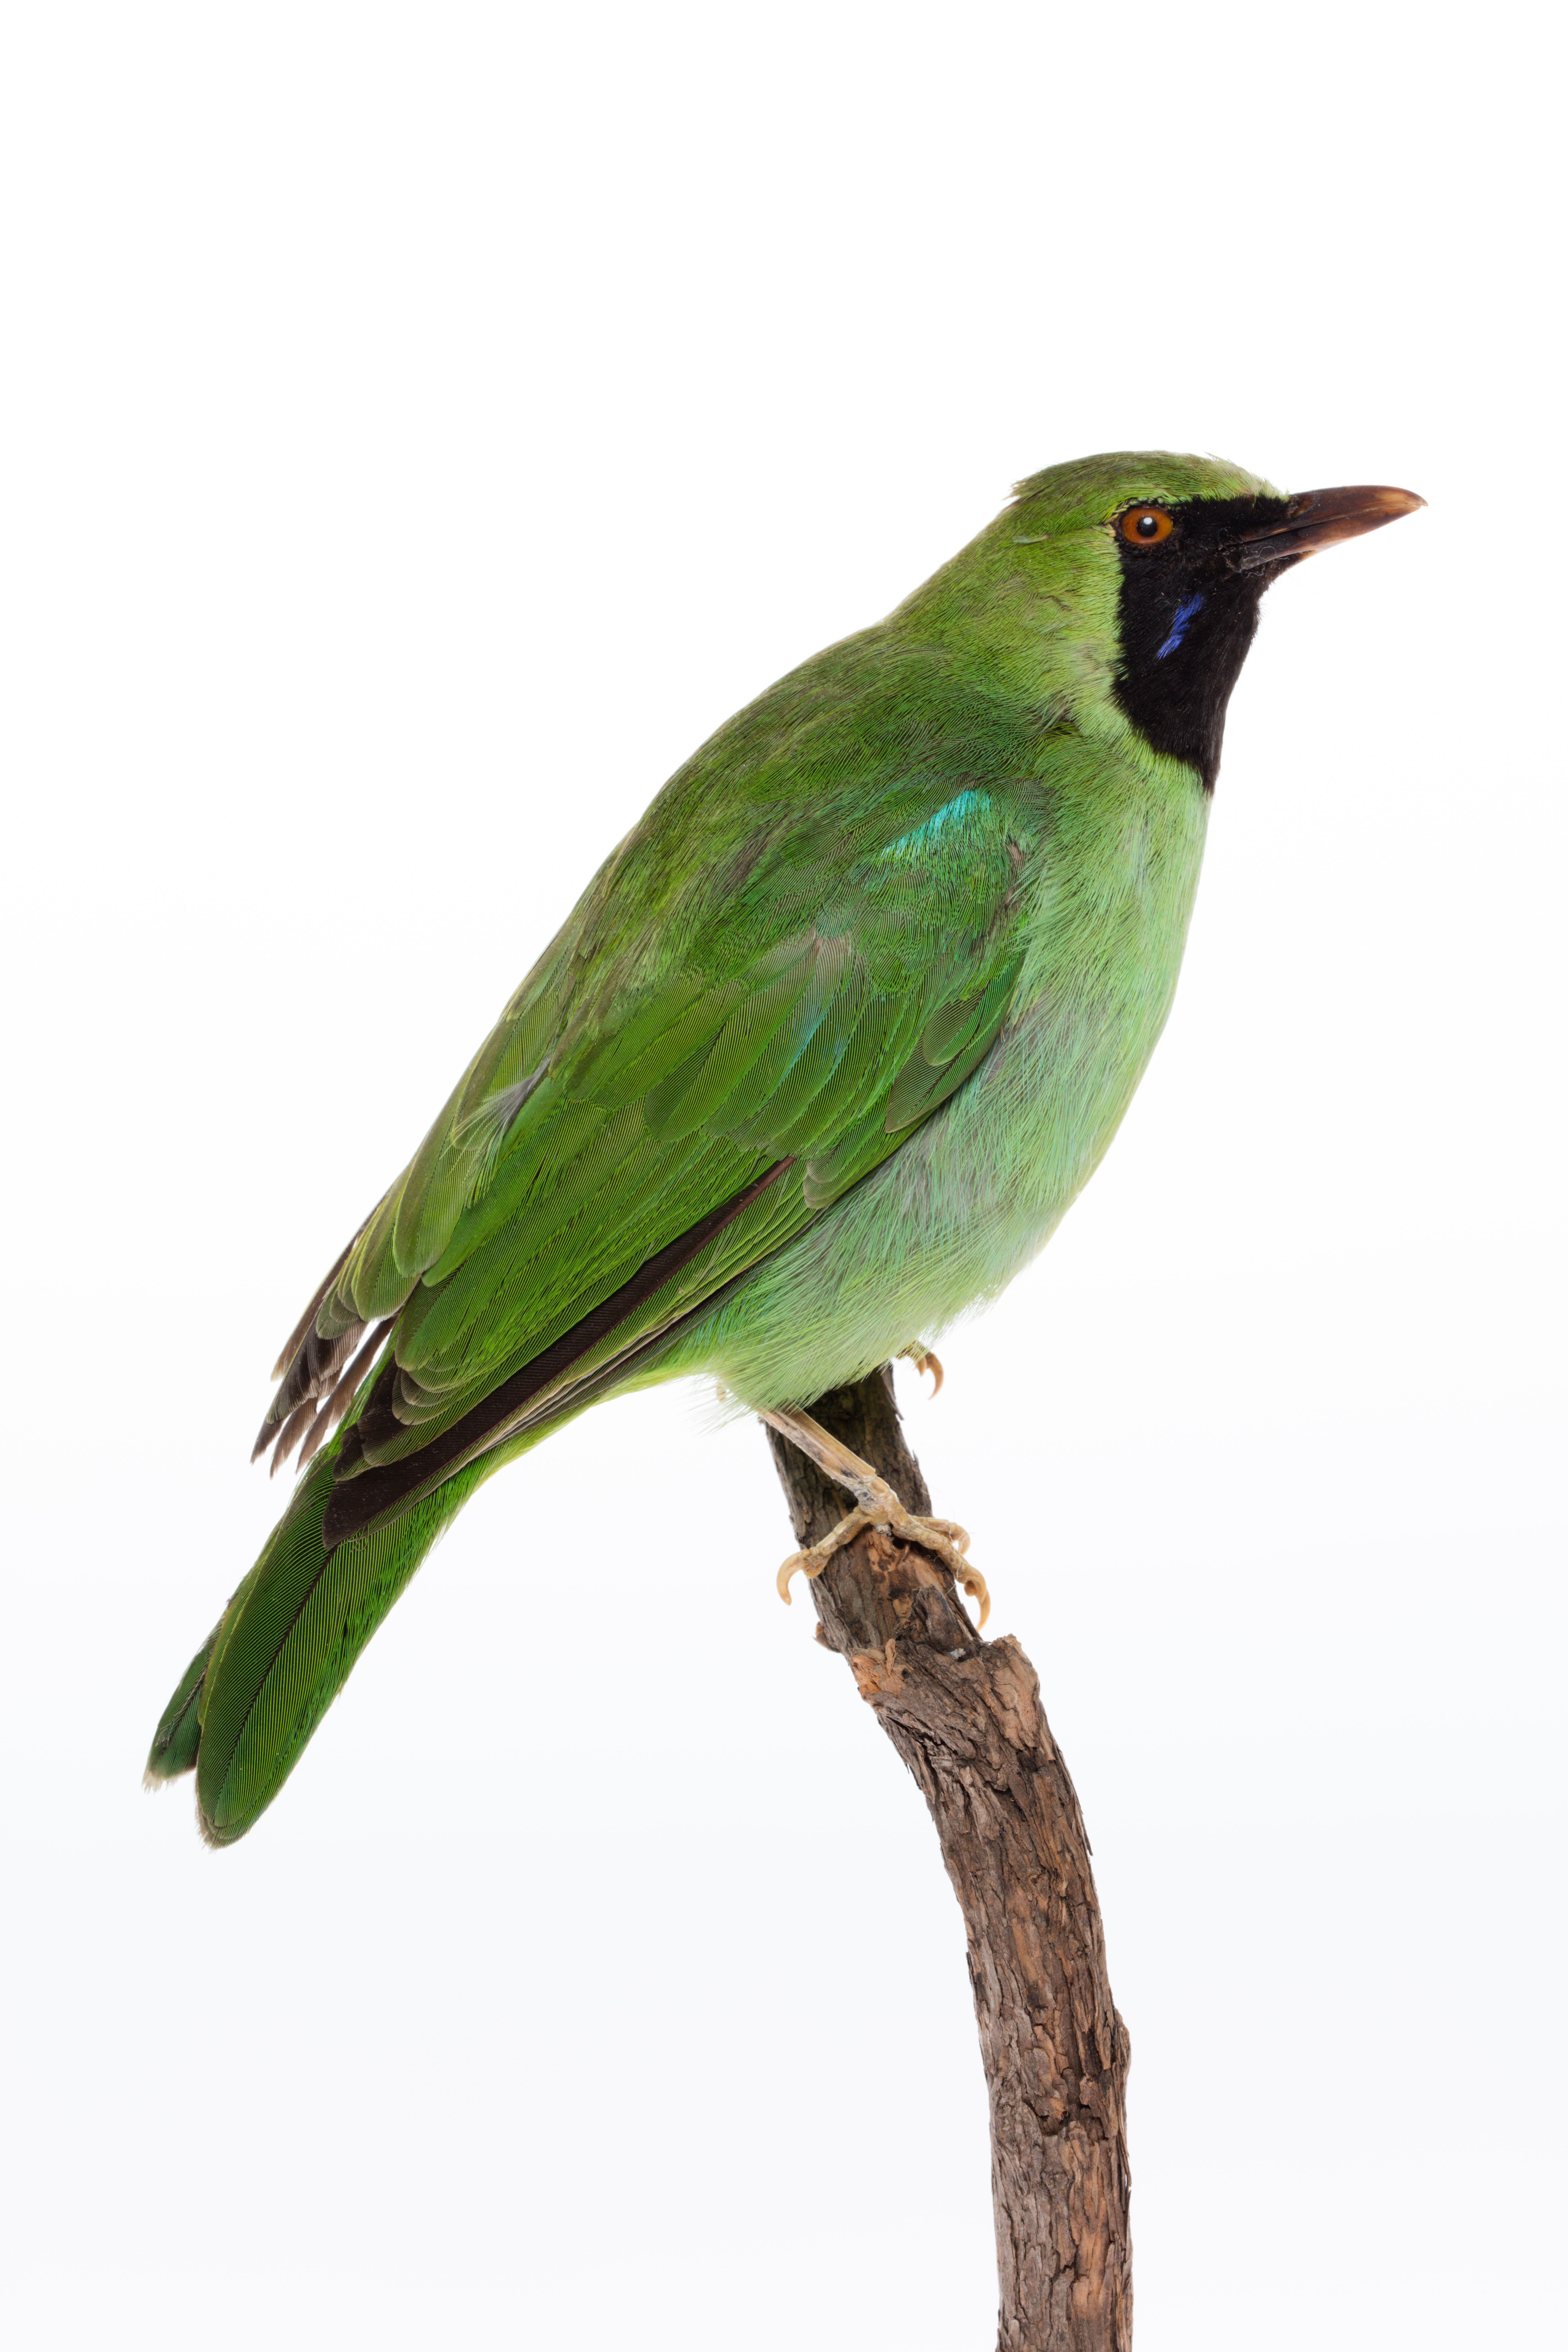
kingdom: Animalia
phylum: Chordata
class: Aves
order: Passeriformes
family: Chloropseidae
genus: Chloropsis
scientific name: Chloropsis sonnerati
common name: Greater green leafbird
